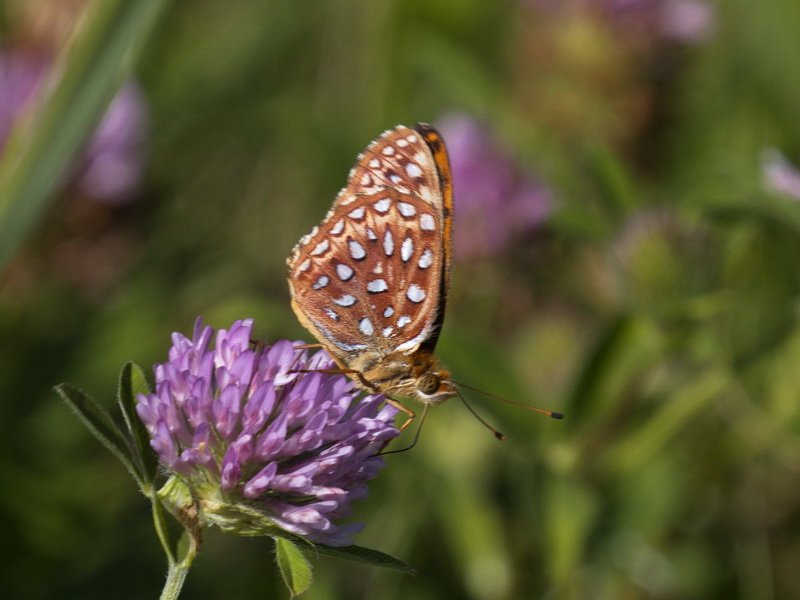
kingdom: Animalia
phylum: Arthropoda
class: Insecta
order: Lepidoptera
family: Nymphalidae
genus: Speyeria
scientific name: Speyeria aphrodite
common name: Aphrodite Fritillary
